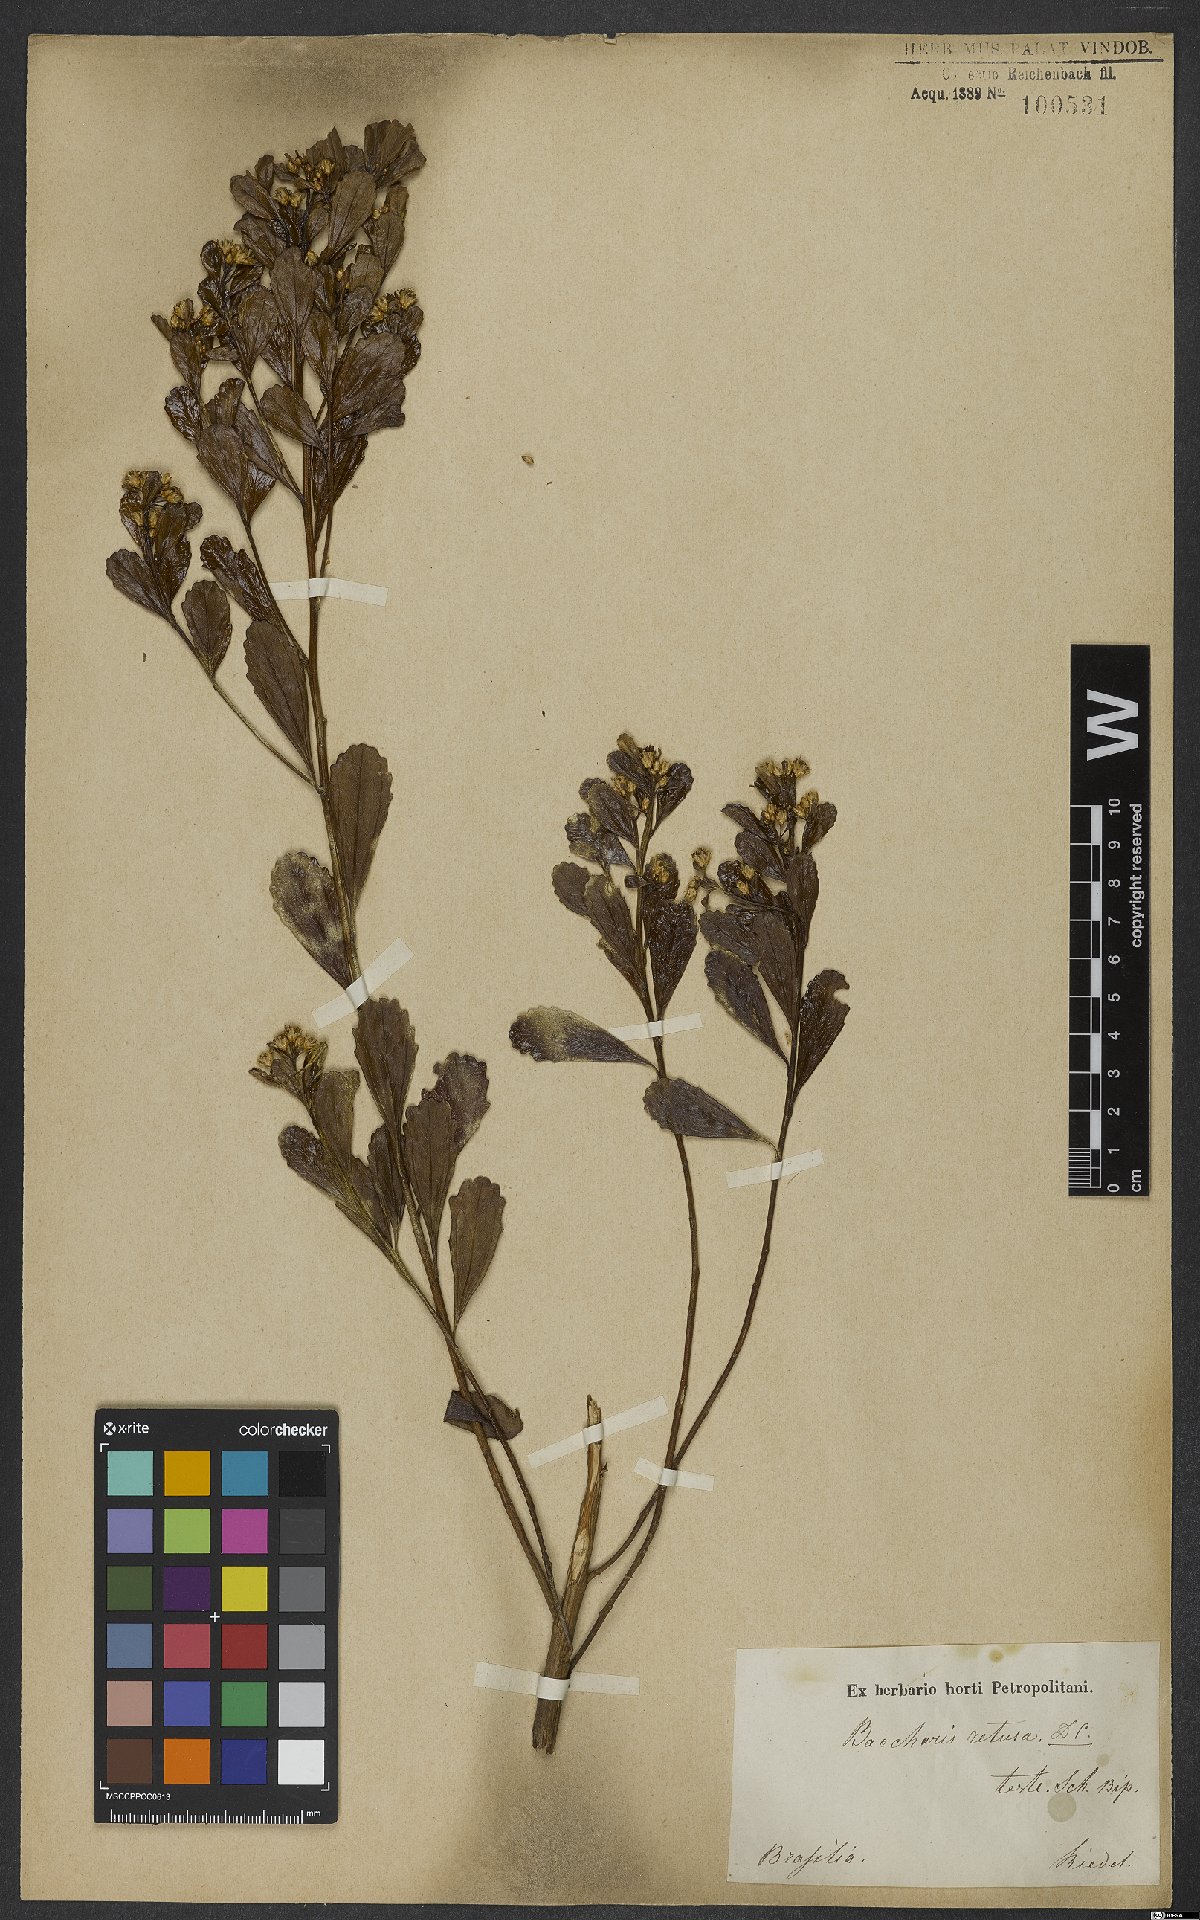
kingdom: Plantae
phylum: Tracheophyta
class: Magnoliopsida
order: Asterales
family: Asteraceae
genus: Baccharis
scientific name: Baccharis retusa
